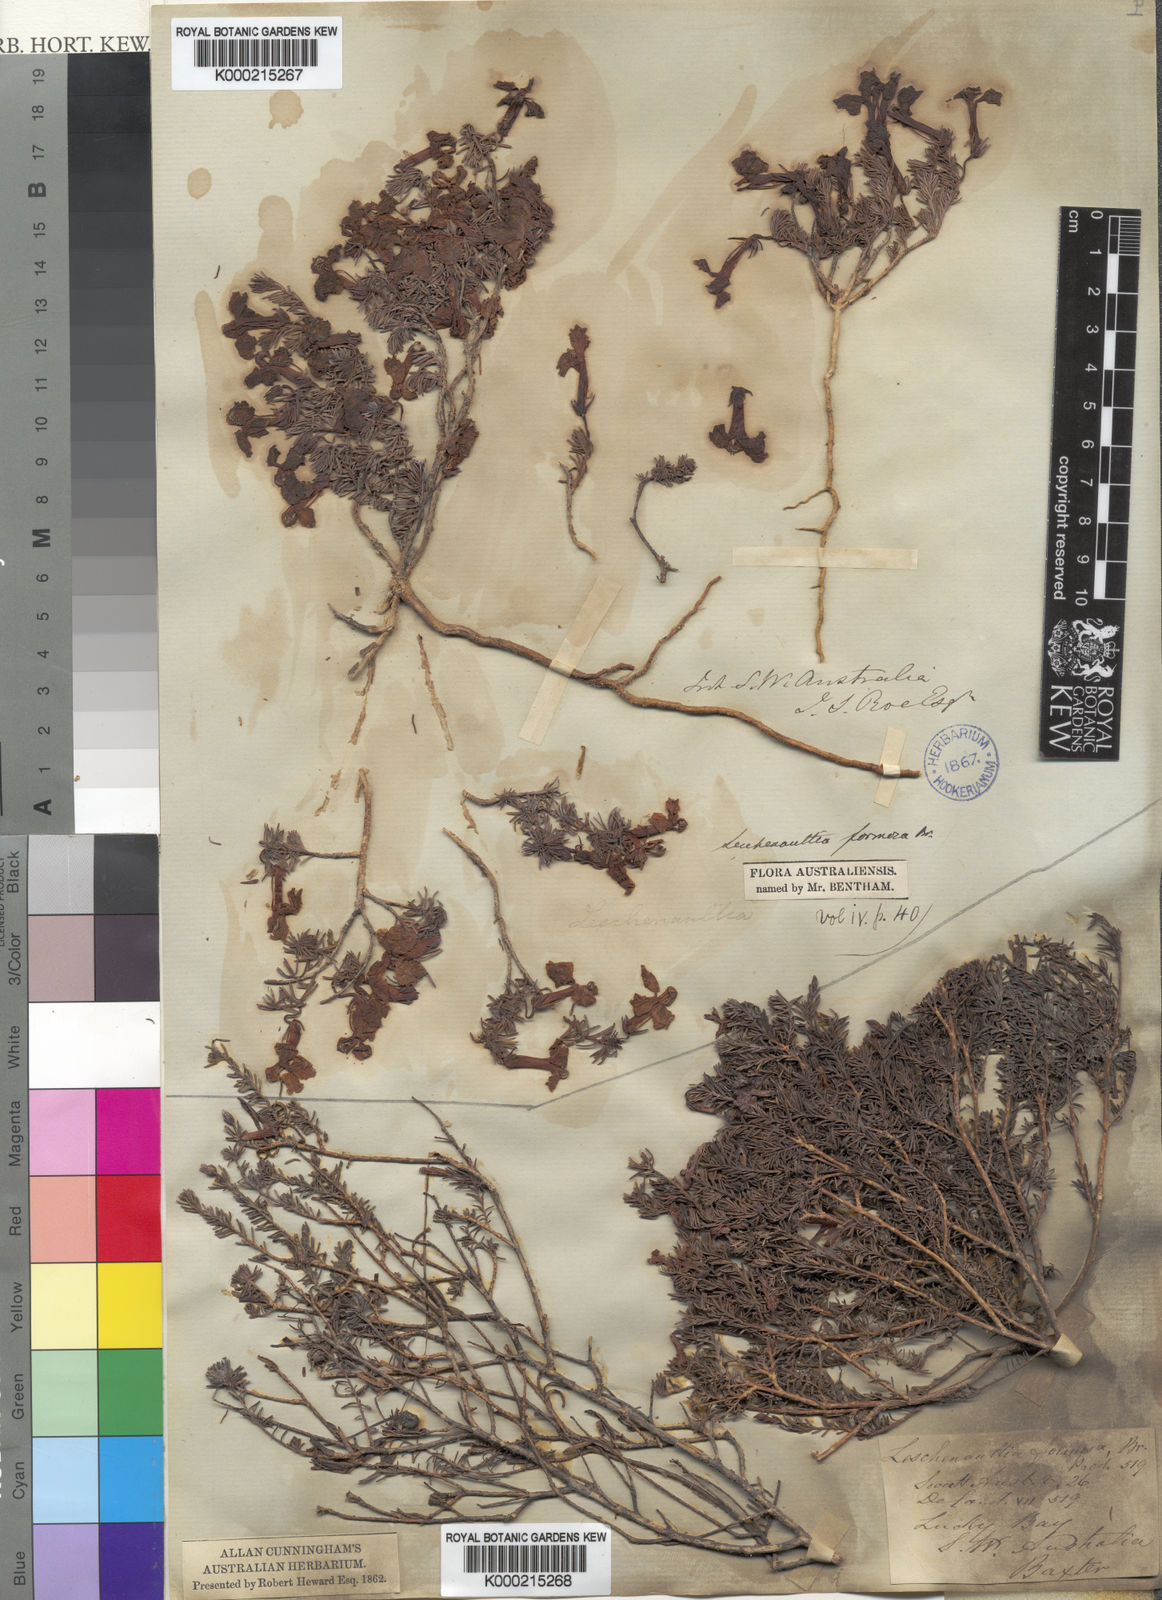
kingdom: Plantae
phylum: Tracheophyta
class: Magnoliopsida
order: Asterales
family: Goodeniaceae
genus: Leschenaultia
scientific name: Leschenaultia formosa
